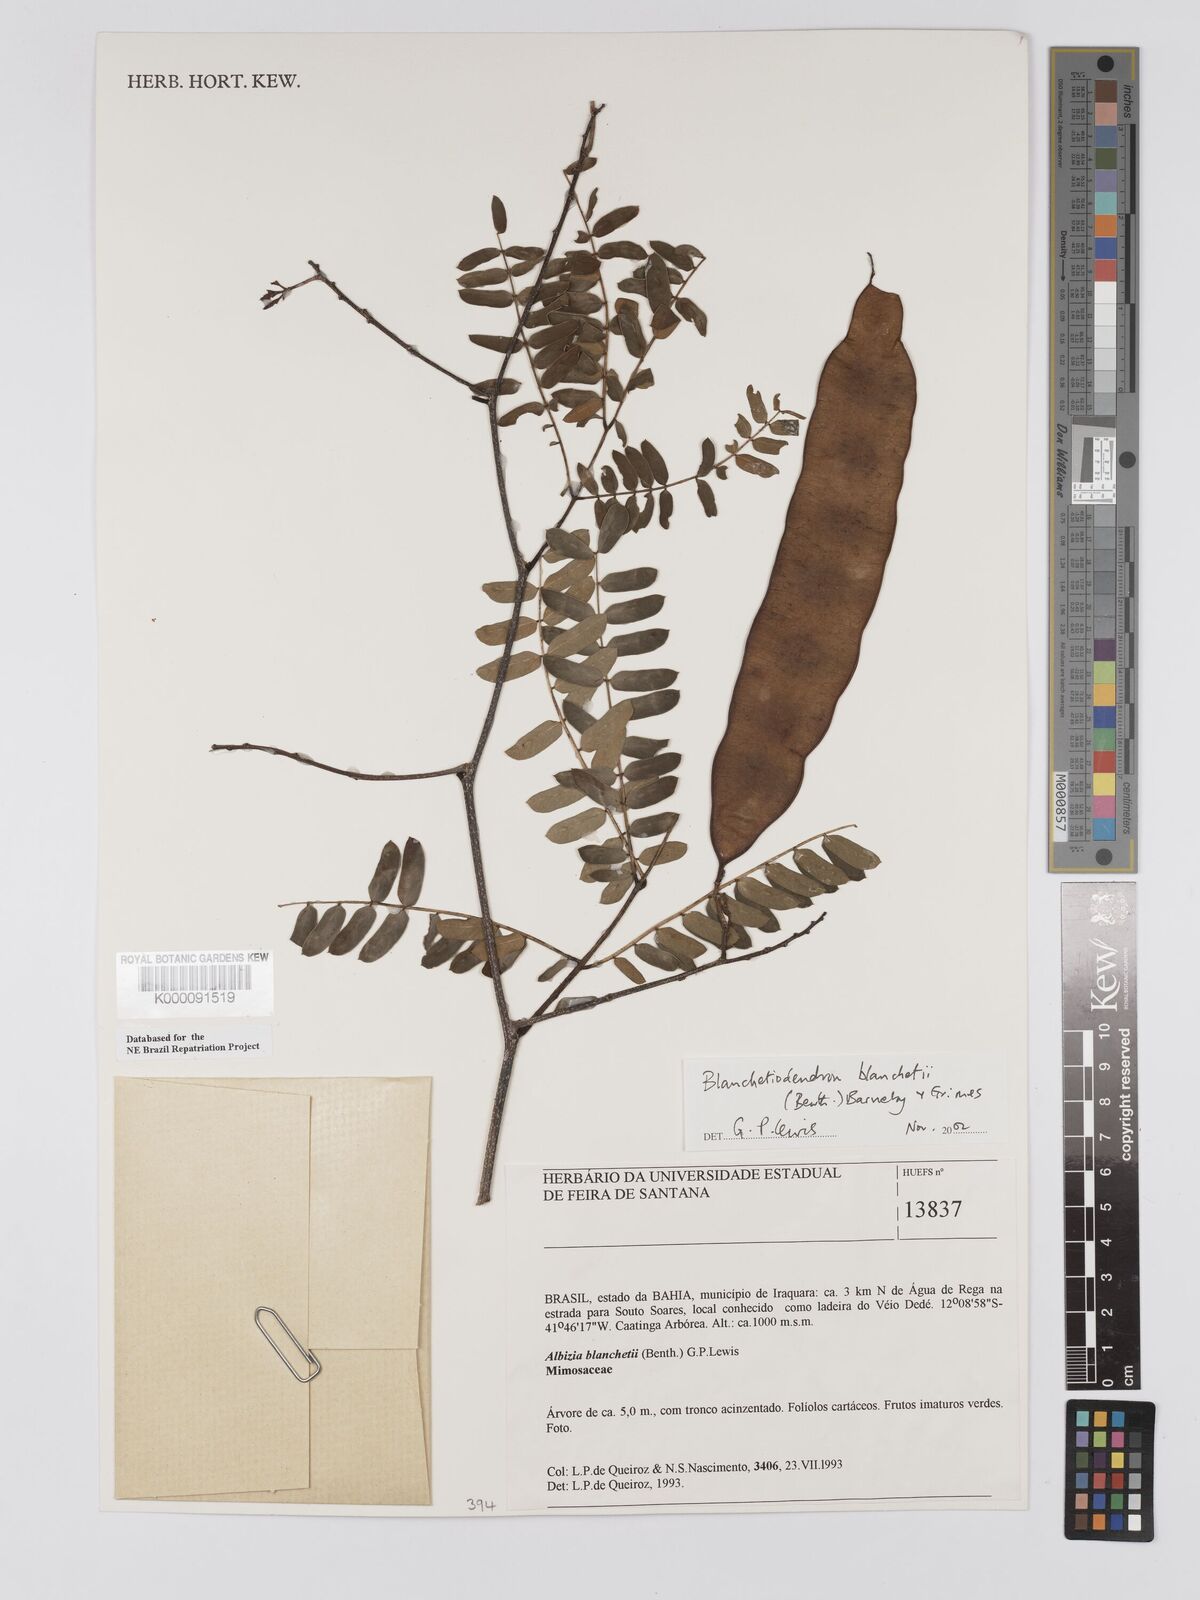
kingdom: Plantae
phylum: Tracheophyta
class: Magnoliopsida
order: Fabales
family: Fabaceae
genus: Blanchetiodendron
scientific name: Blanchetiodendron blanchetii
